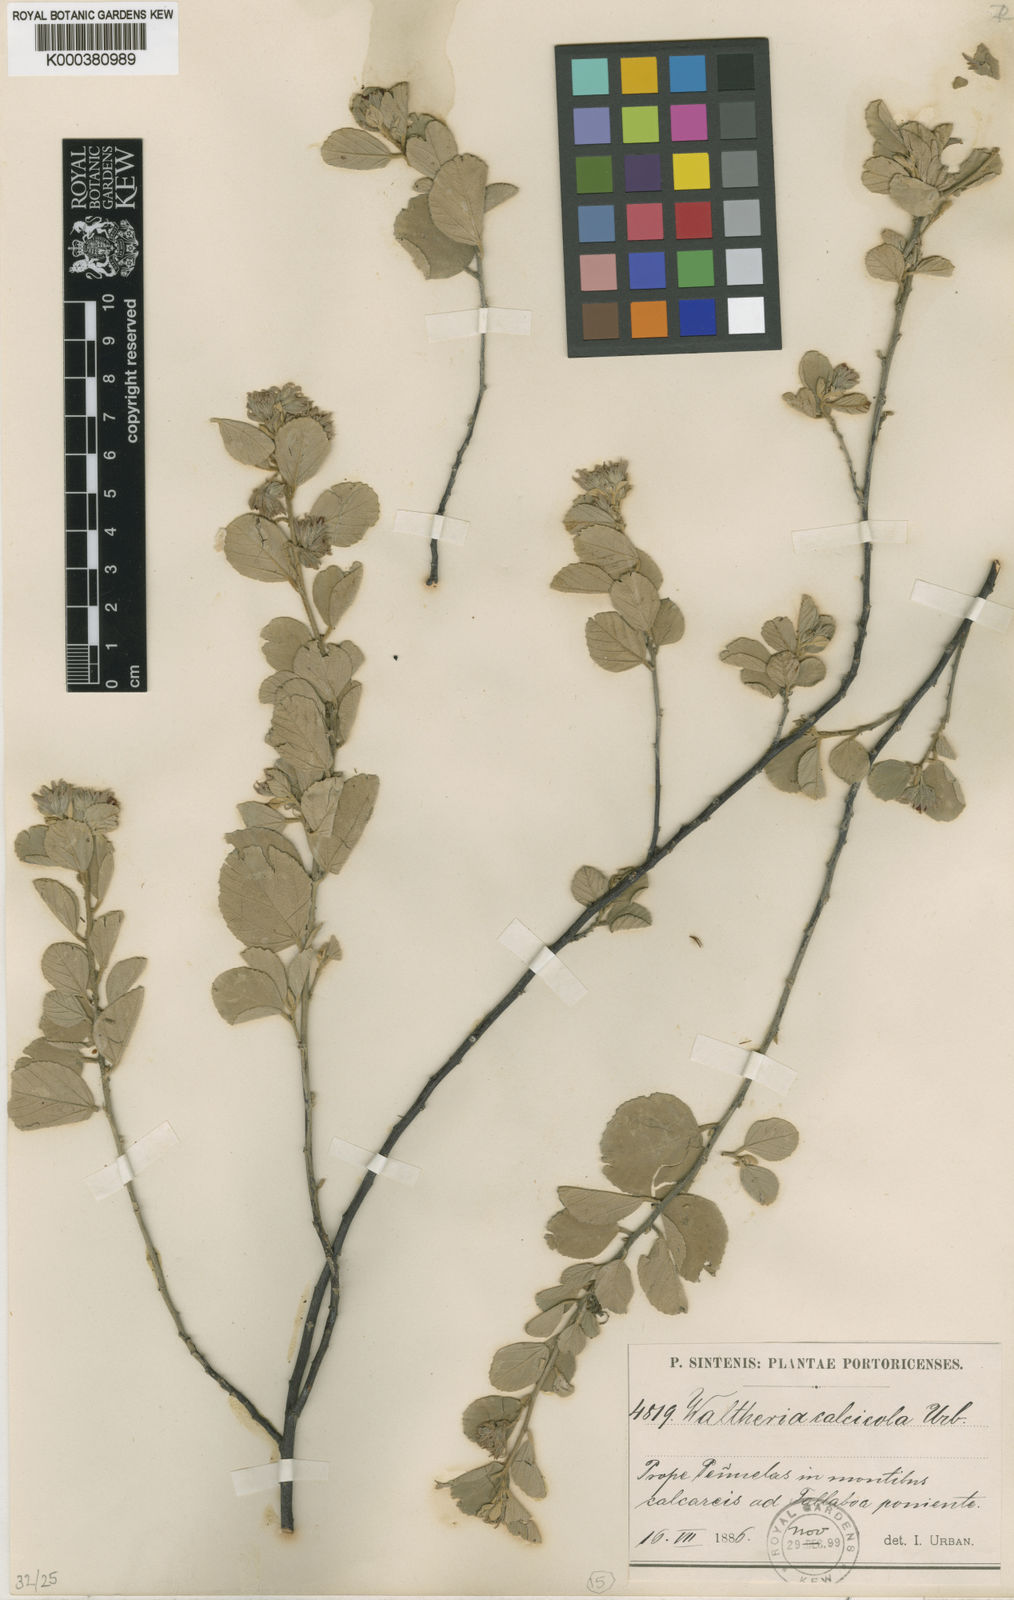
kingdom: Plantae
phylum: Tracheophyta
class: Magnoliopsida
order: Malvales
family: Malvaceae
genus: Waltheria
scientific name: Waltheria calcicola
